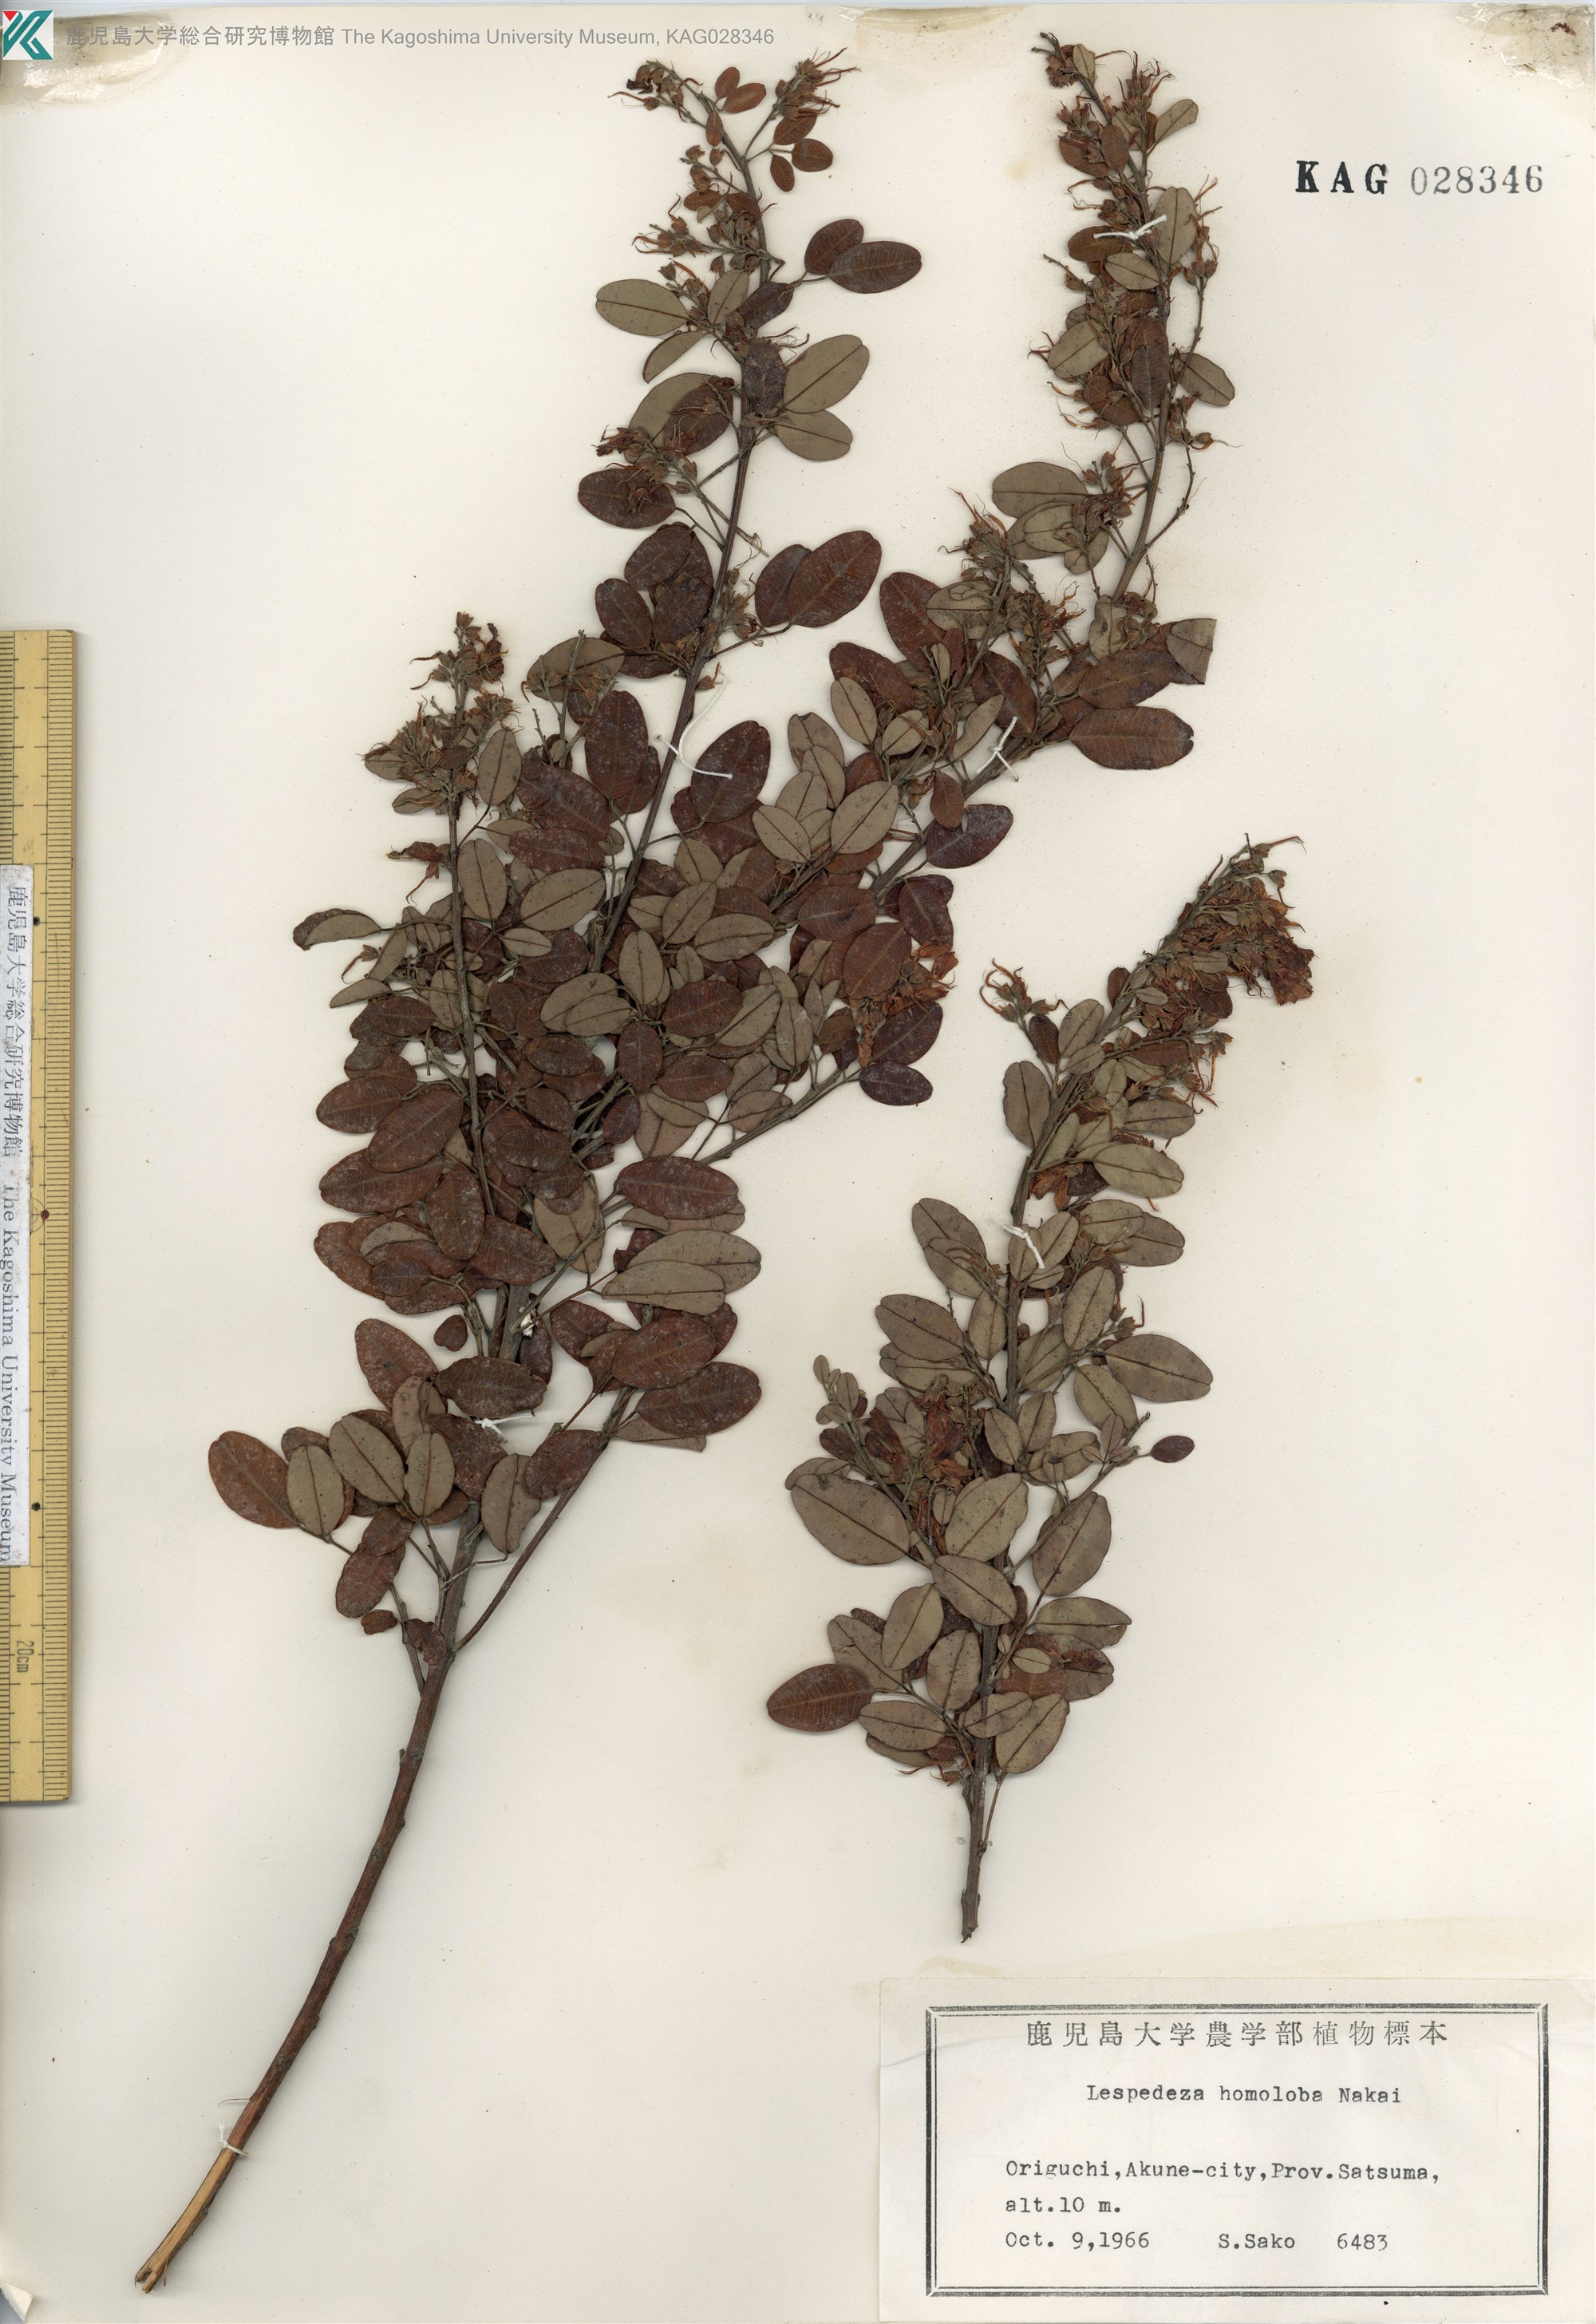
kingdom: Plantae
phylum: Tracheophyta
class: Magnoliopsida
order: Fabales
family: Fabaceae
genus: Lespedeza
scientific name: Lespedeza homoloba
